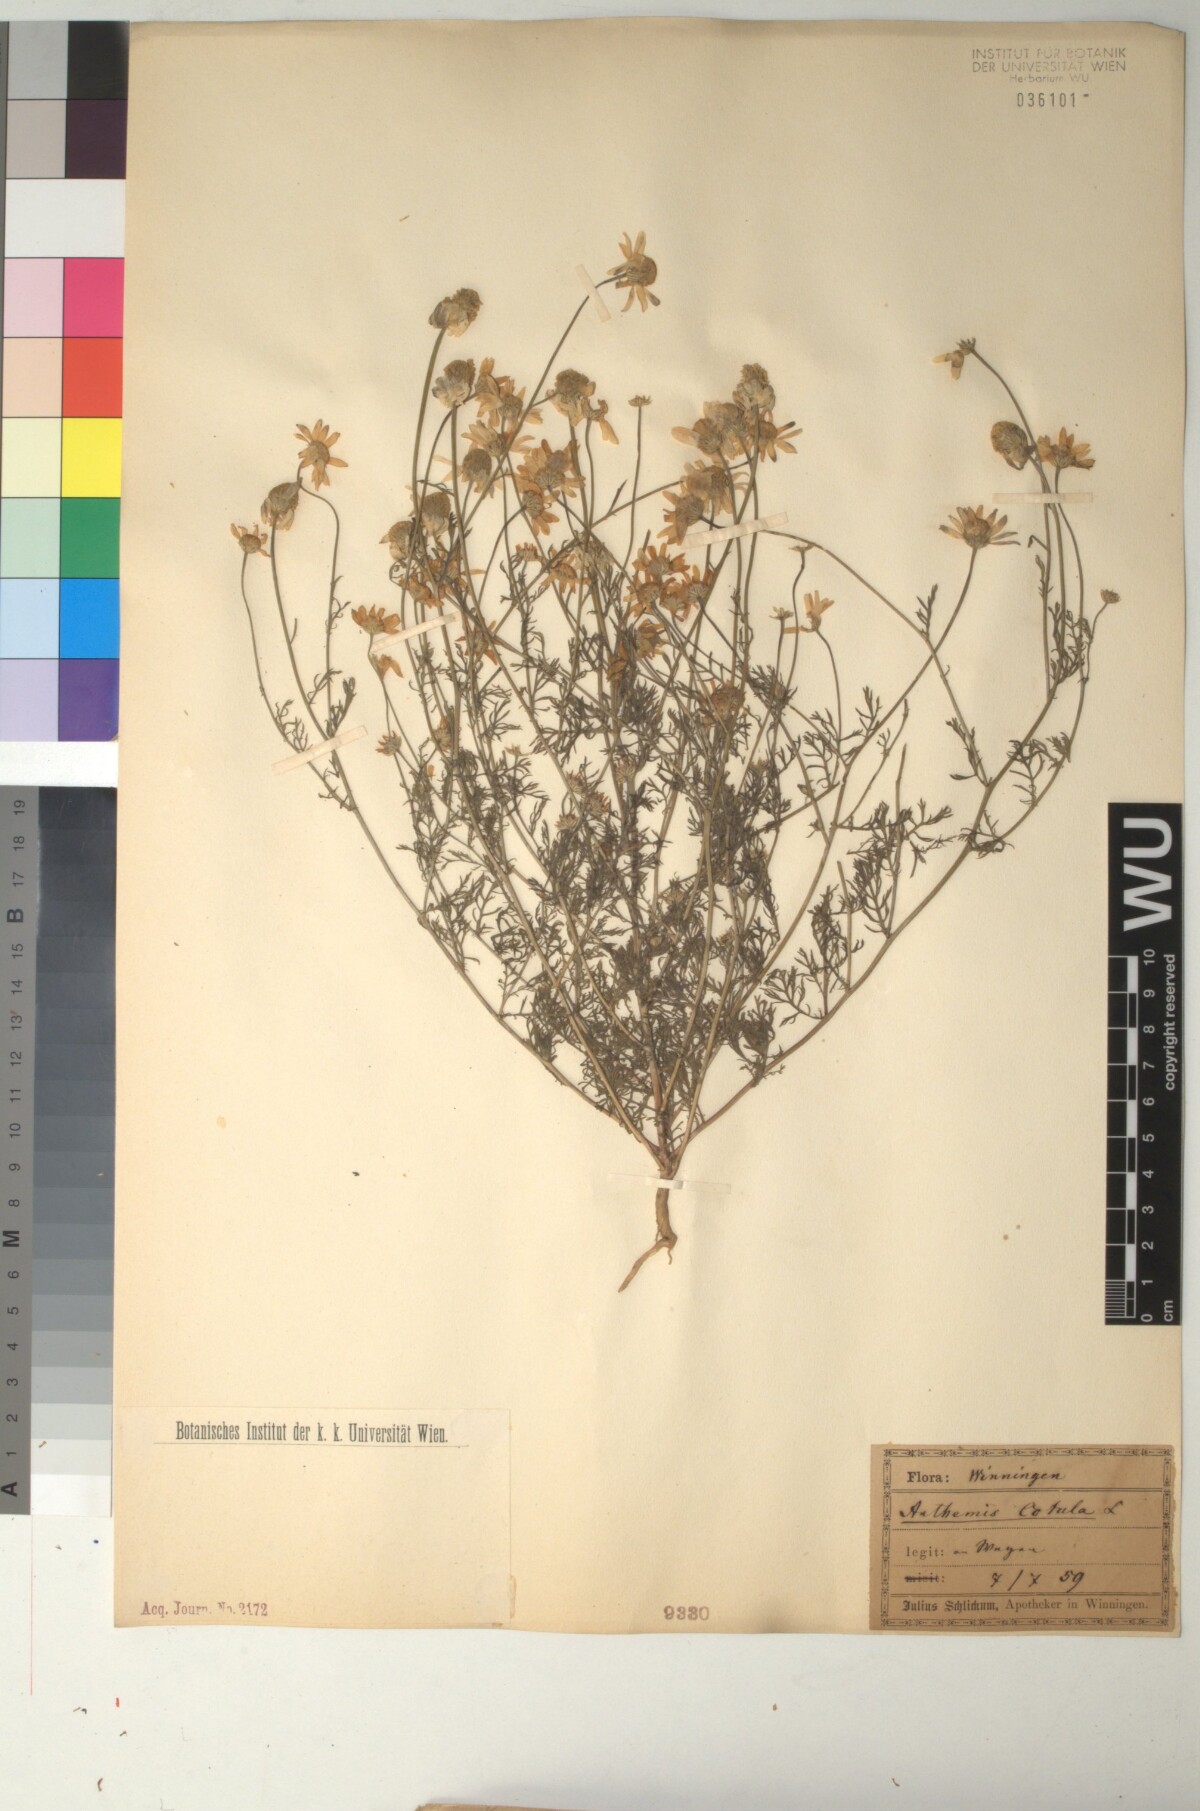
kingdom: Plantae
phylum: Tracheophyta
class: Magnoliopsida
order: Asterales
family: Asteraceae
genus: Anthemis
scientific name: Anthemis cotula
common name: Stinking chamomile
